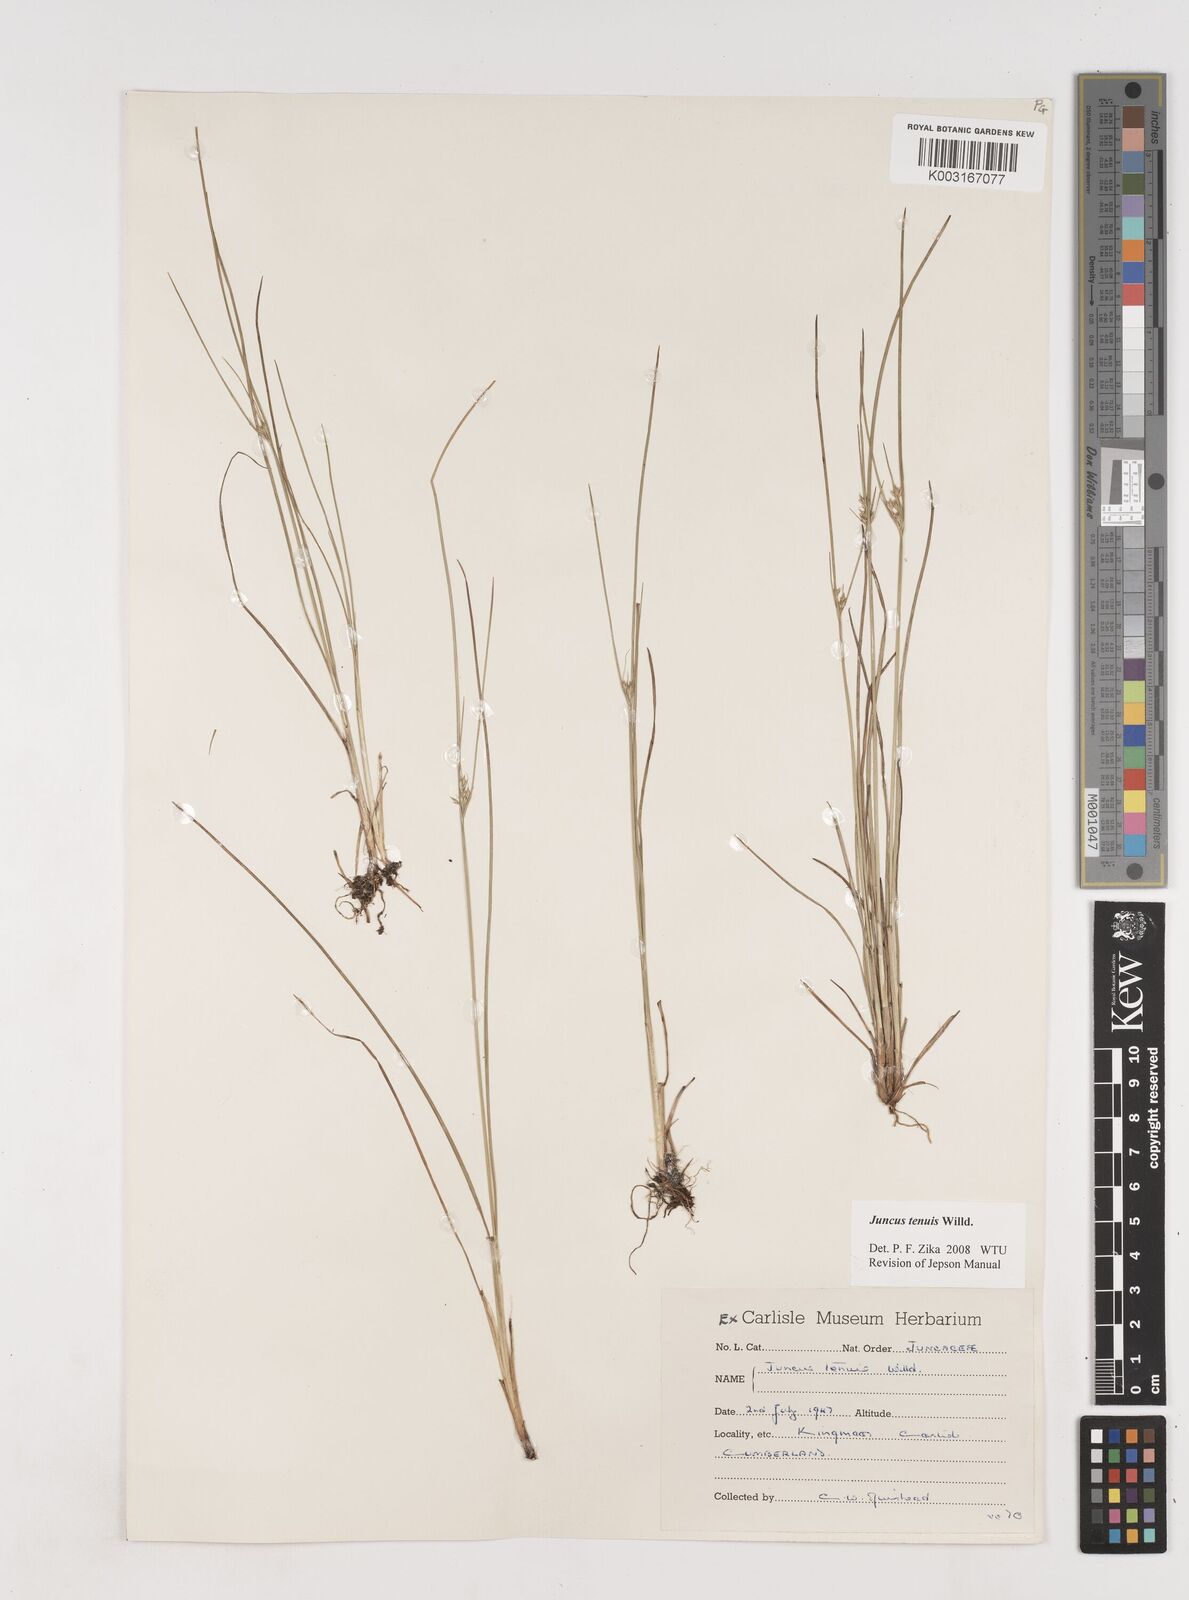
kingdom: Plantae
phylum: Tracheophyta
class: Liliopsida
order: Poales
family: Juncaceae
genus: Juncus
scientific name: Juncus tenuis
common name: Slender rush
